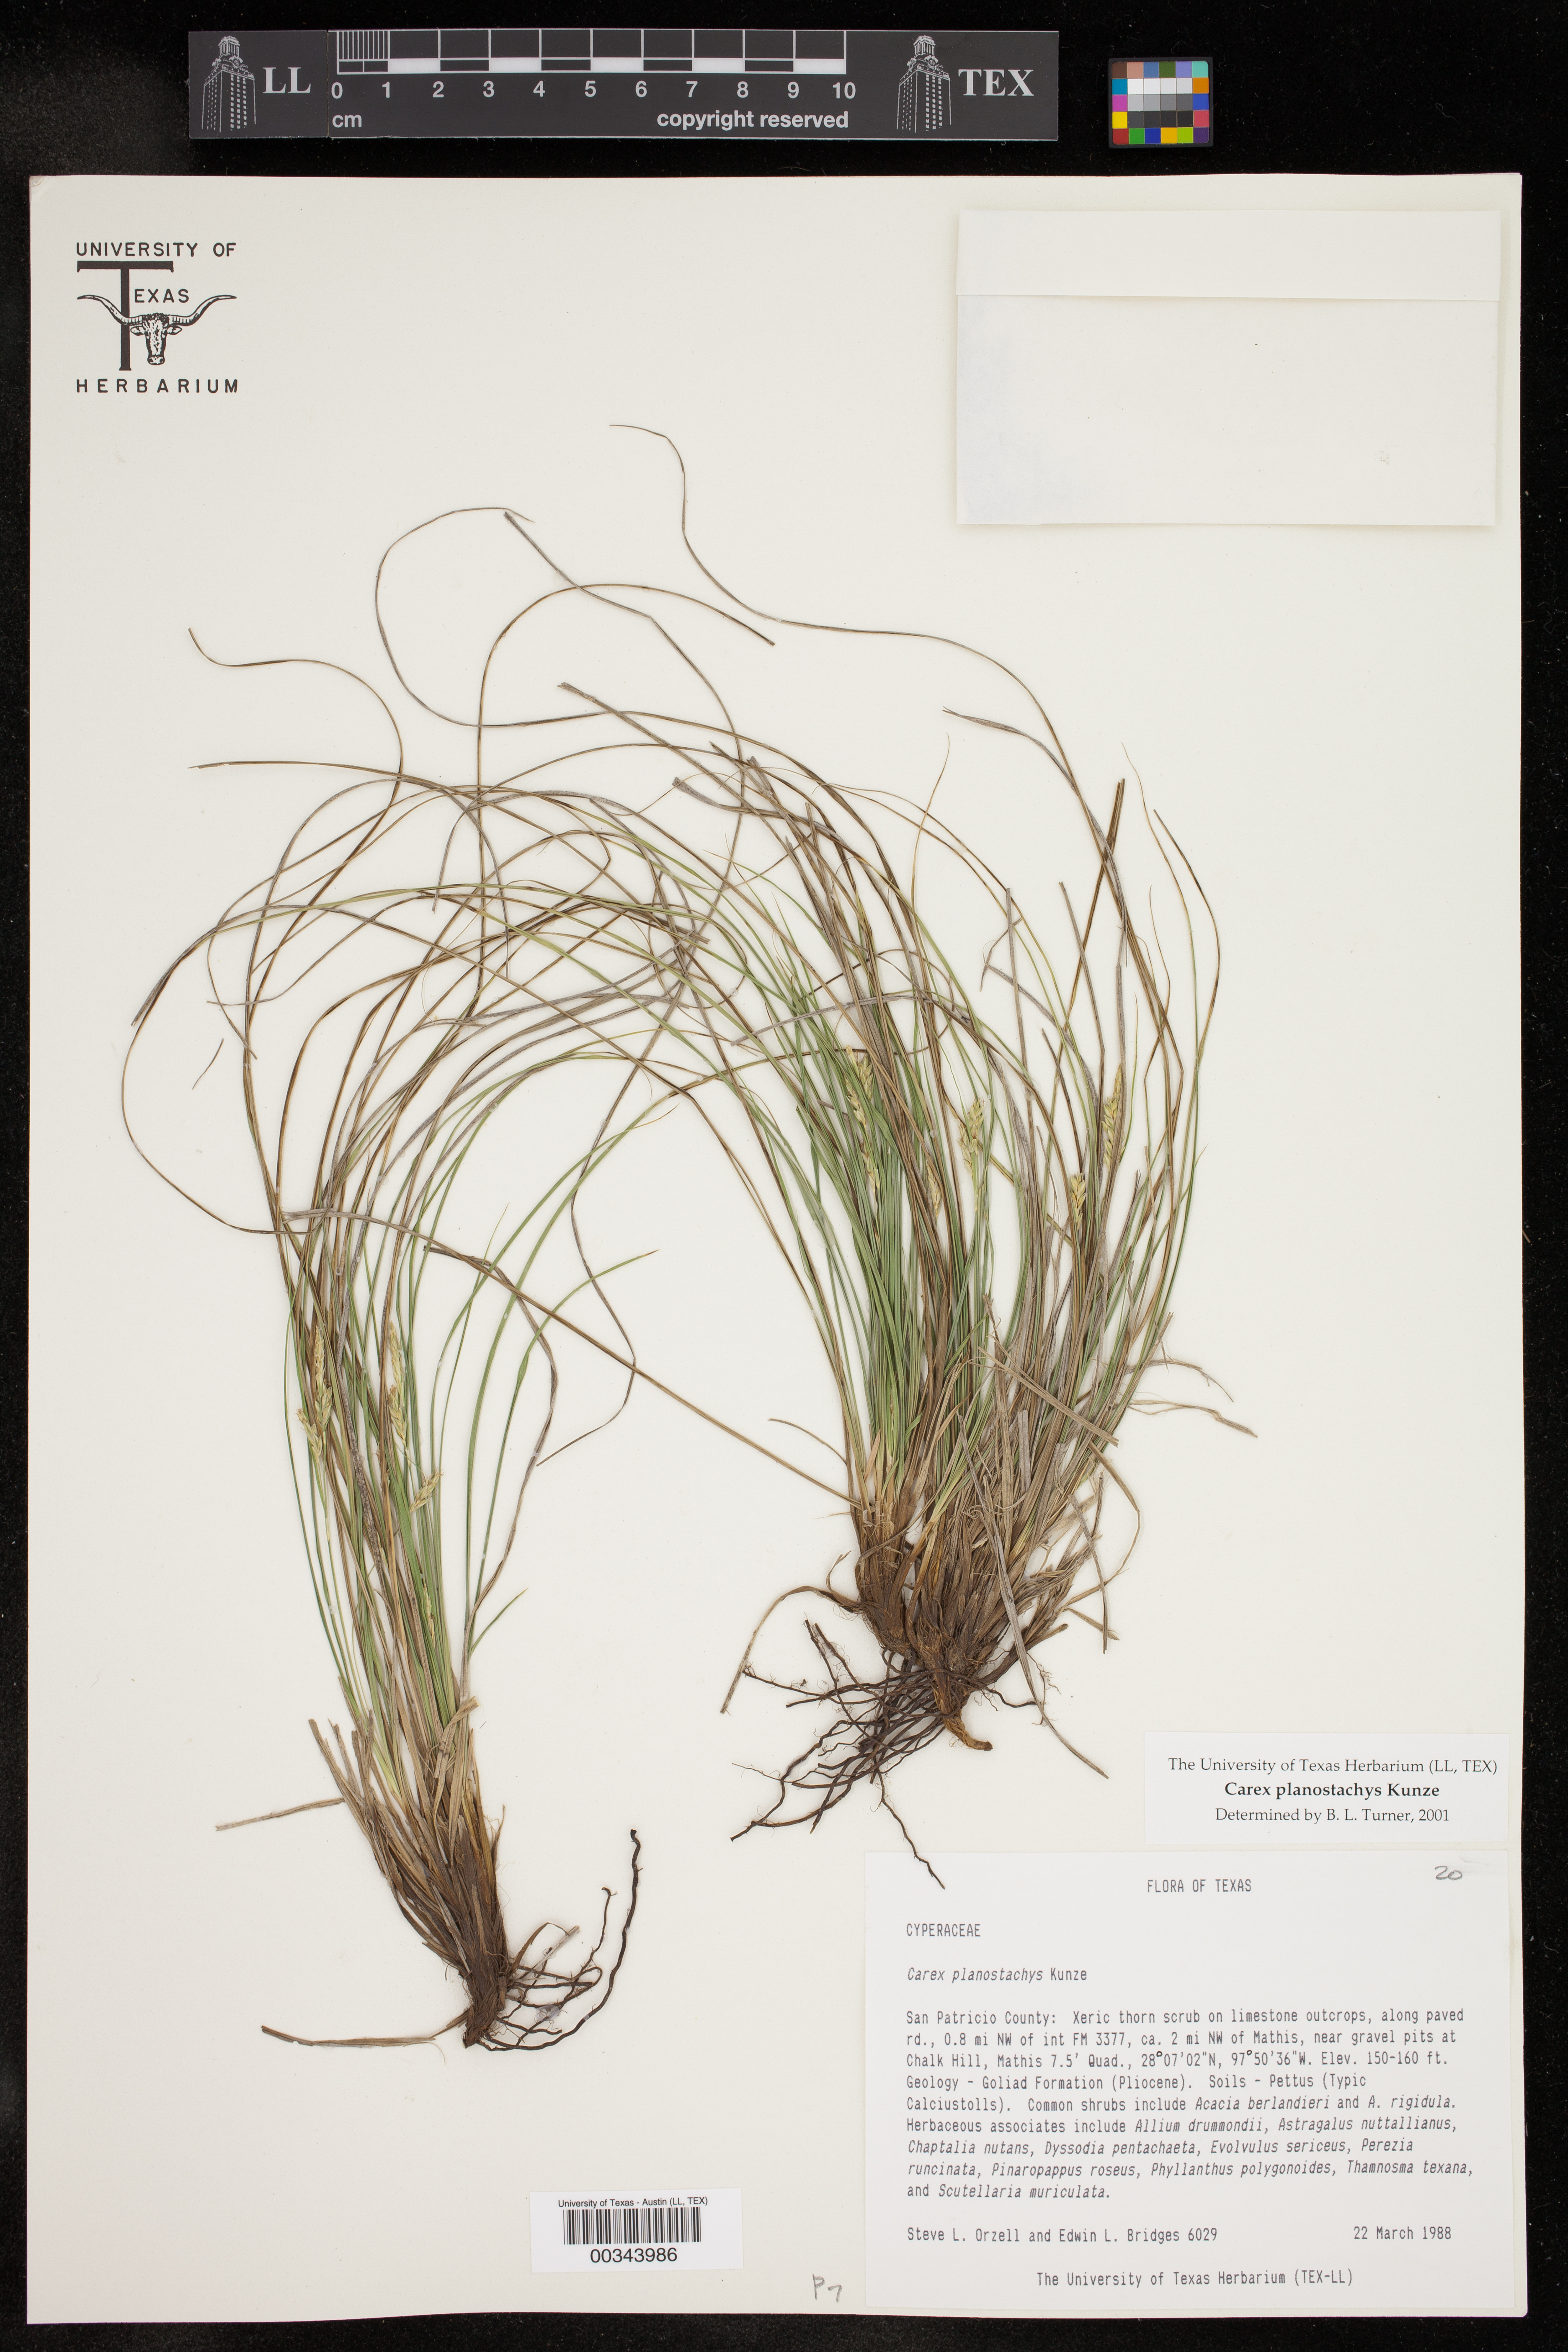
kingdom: Plantae
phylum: Tracheophyta
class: Liliopsida
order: Poales
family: Cyperaceae
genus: Carex
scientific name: Carex planostachys
